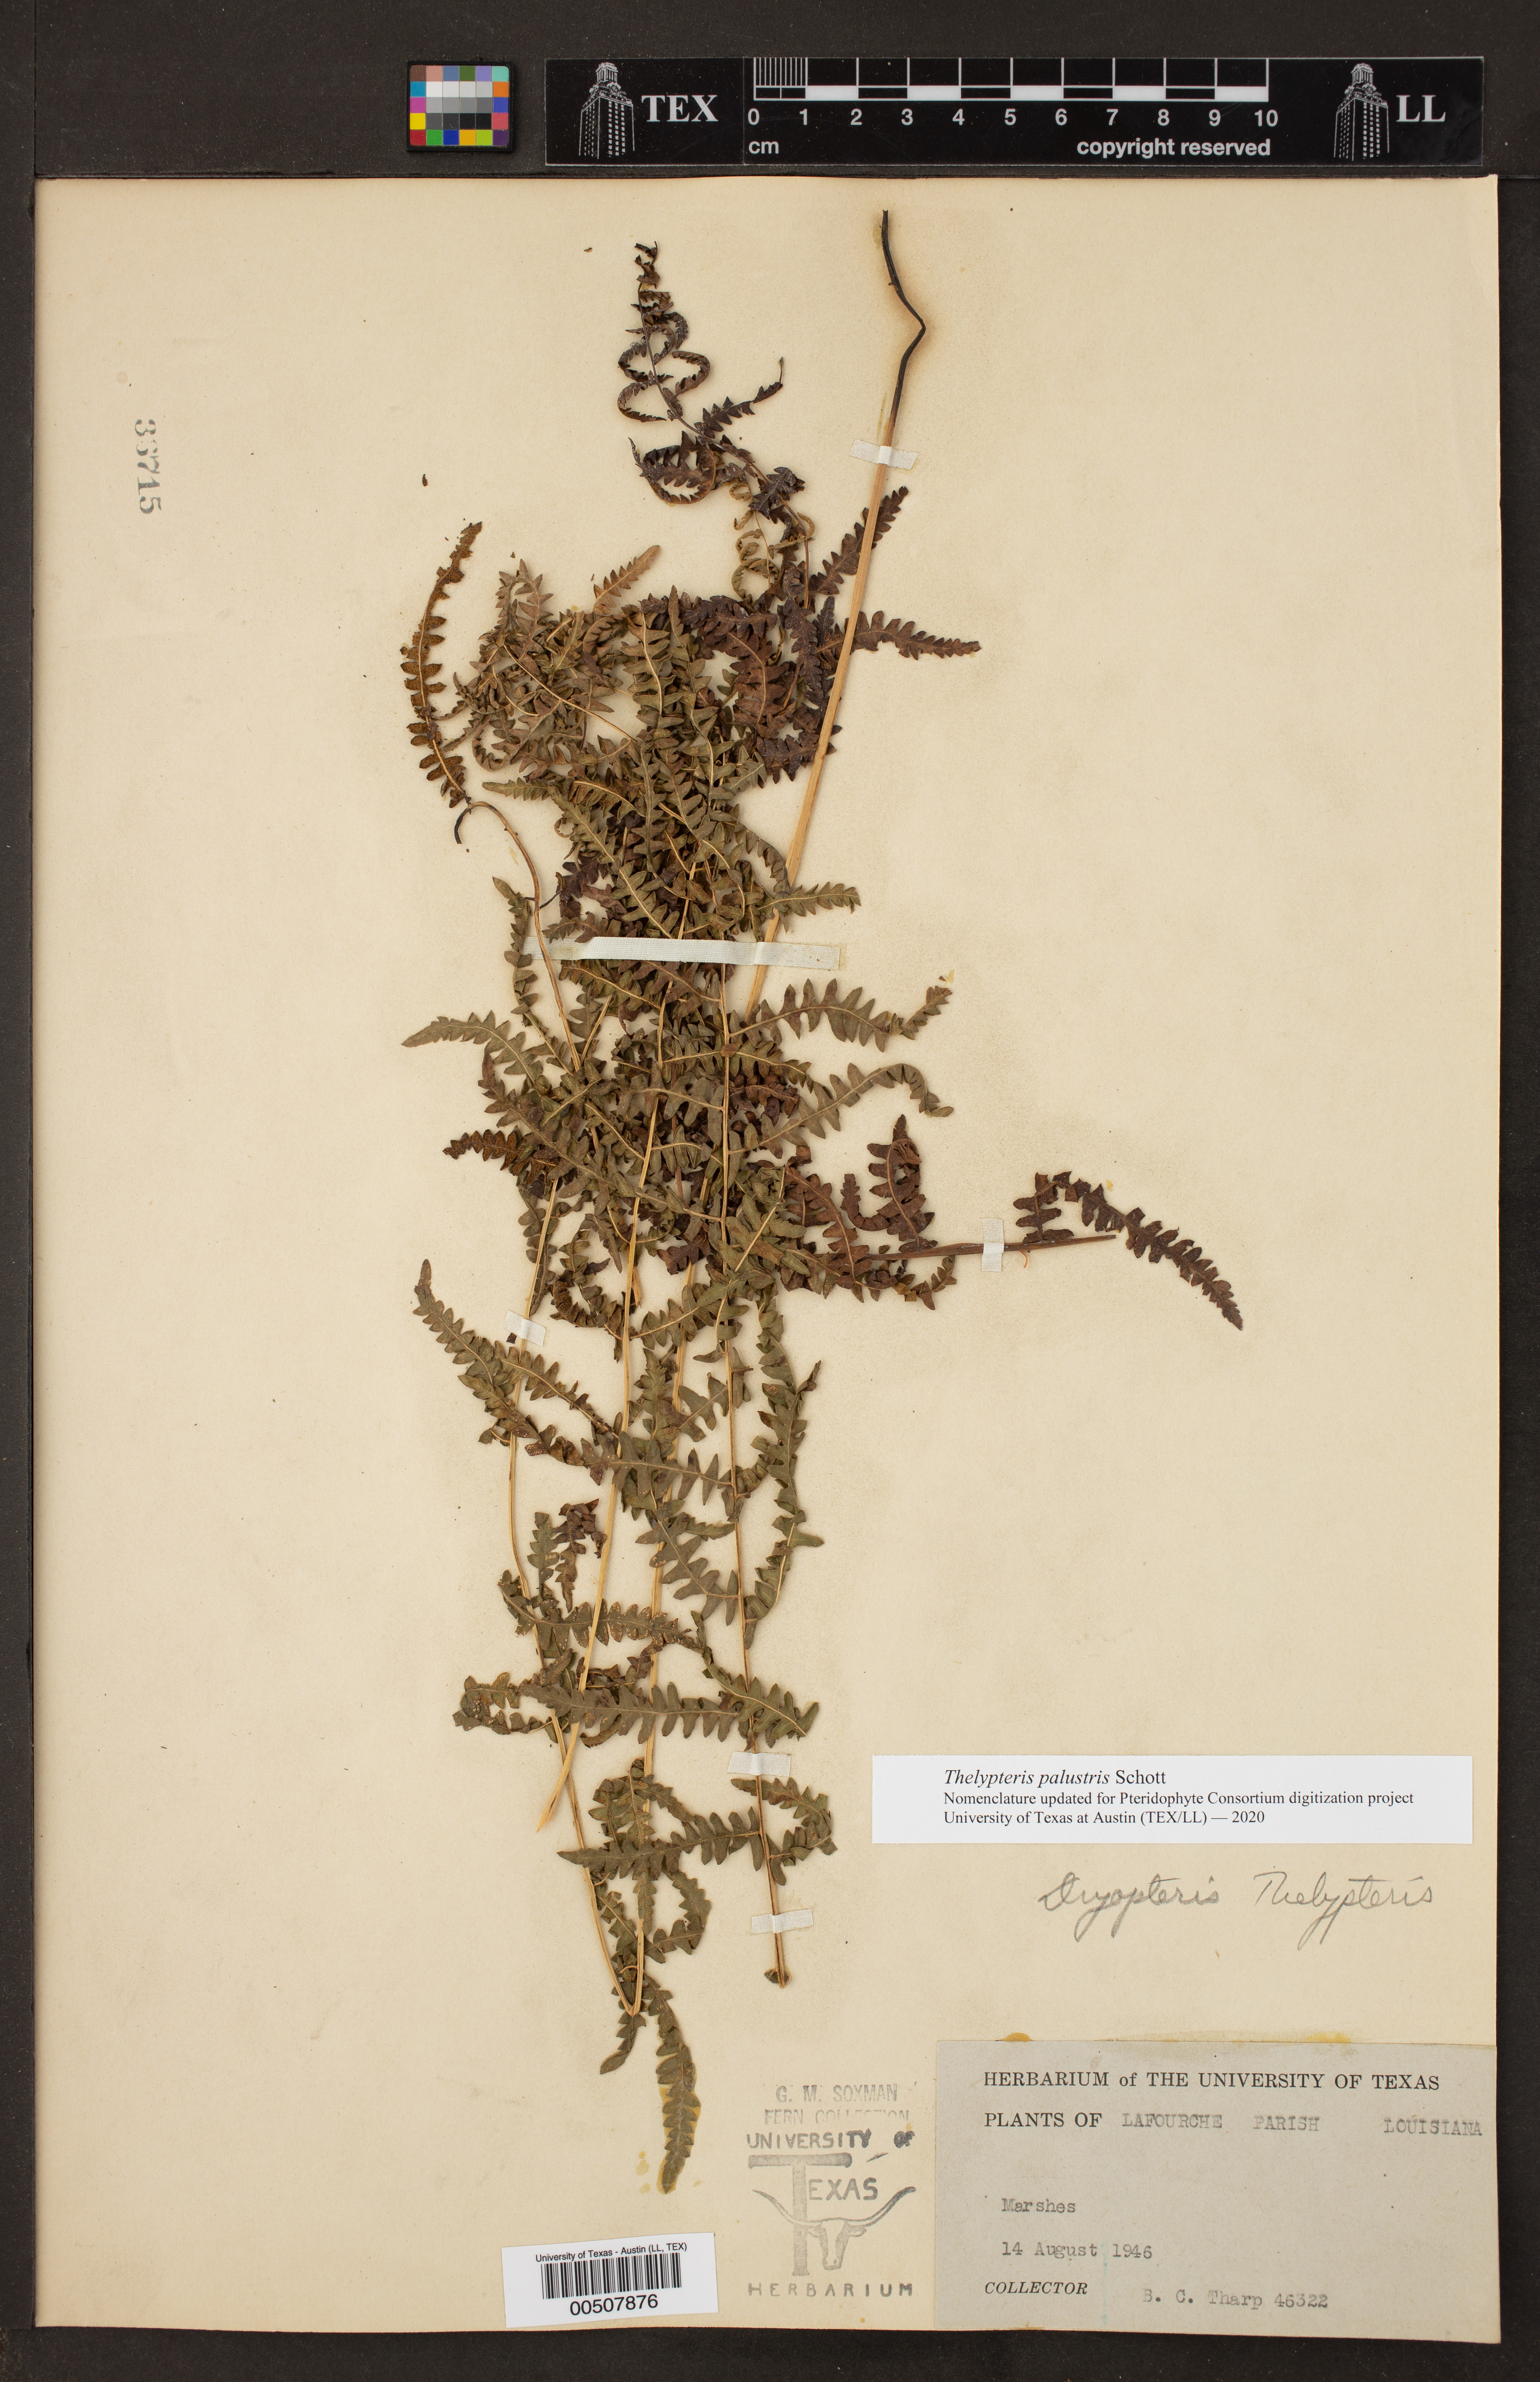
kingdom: Plantae
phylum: Tracheophyta
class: Polypodiopsida
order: Polypodiales
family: Thelypteridaceae
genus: Thelypteris
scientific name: Thelypteris palustris
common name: Marsh fern
